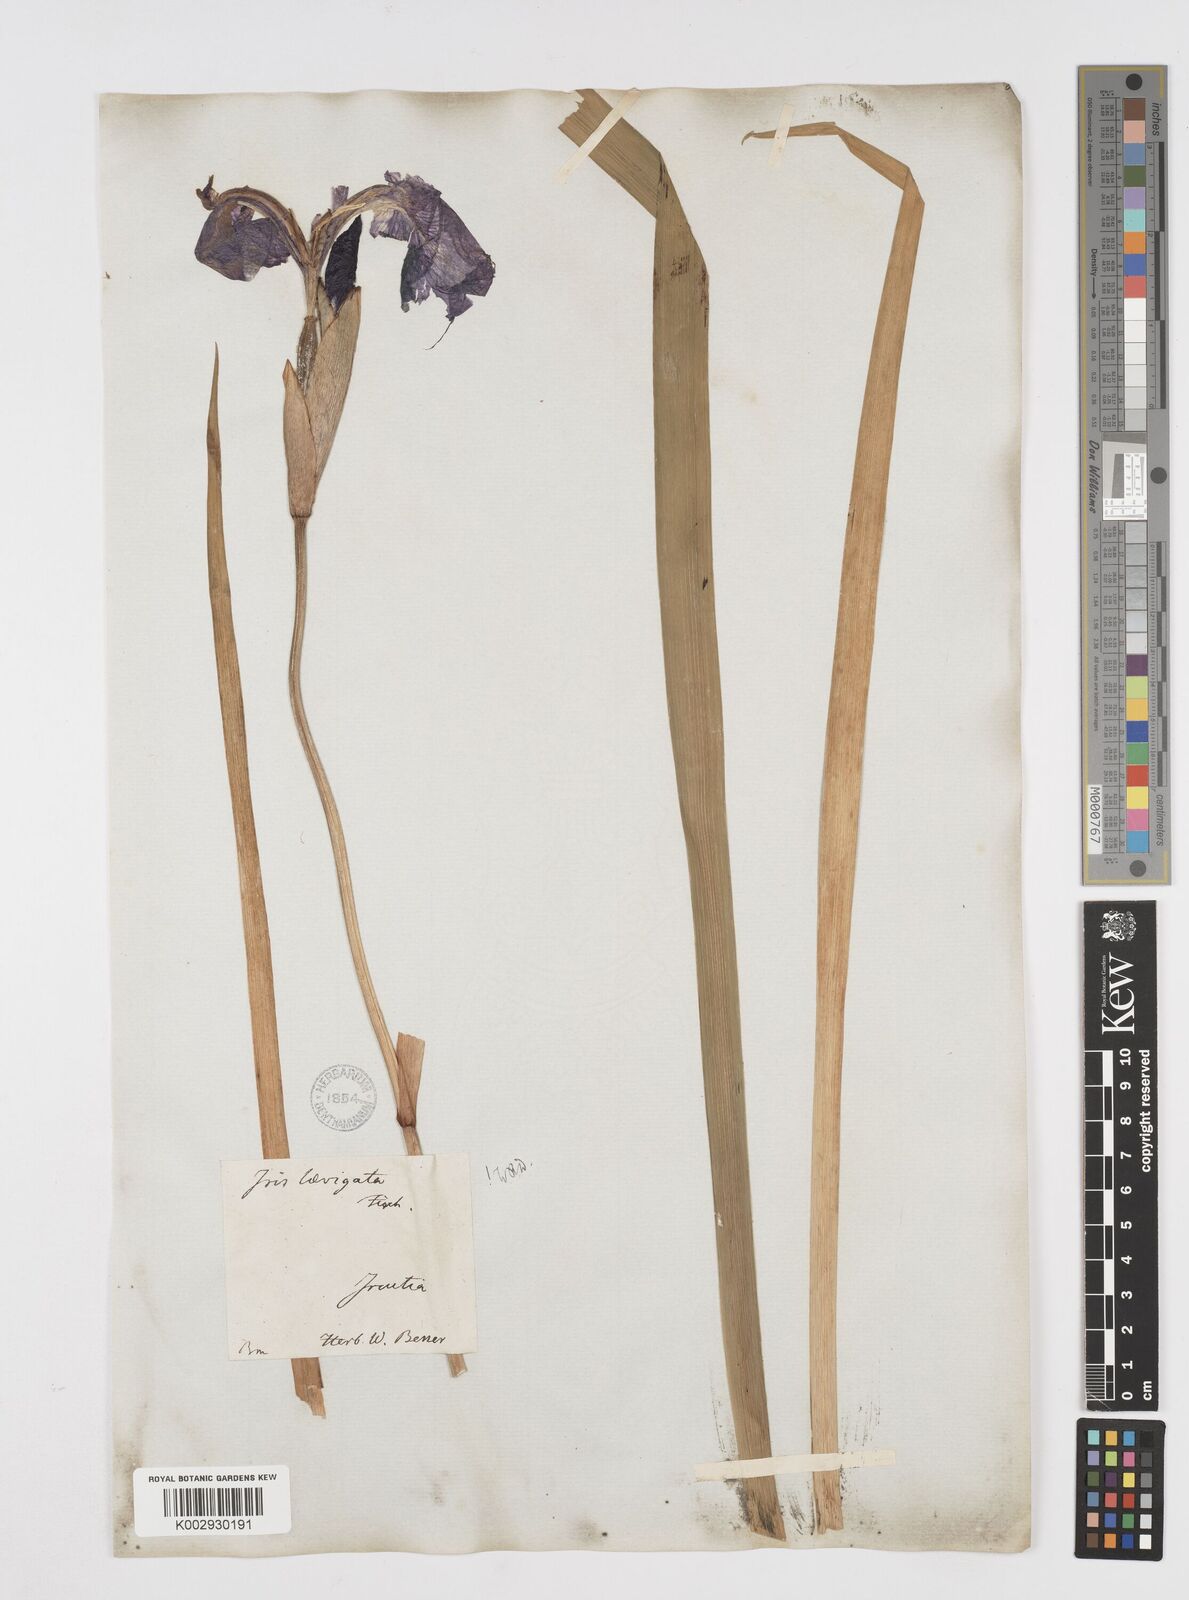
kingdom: Plantae
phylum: Tracheophyta
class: Liliopsida
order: Asparagales
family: Iridaceae
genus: Iris
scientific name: Iris laevigata
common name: Japanese iris
